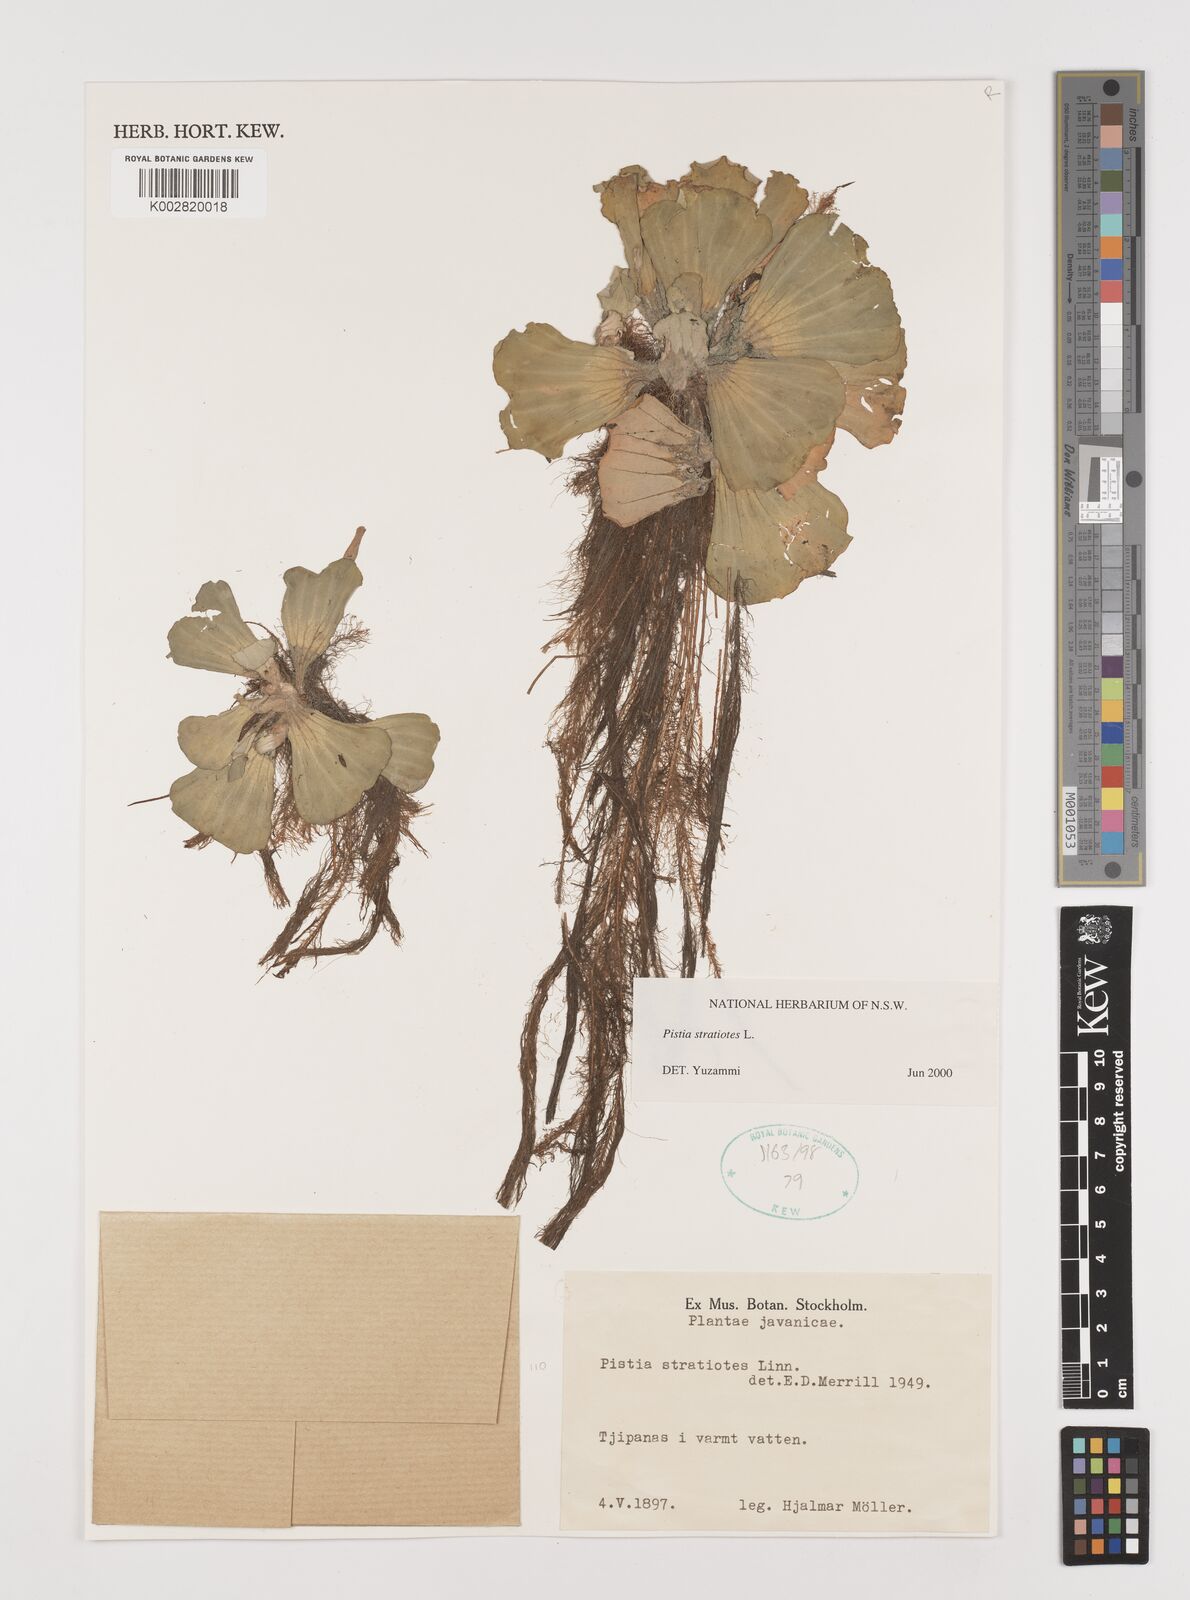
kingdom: Plantae
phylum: Tracheophyta
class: Liliopsida
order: Alismatales
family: Araceae
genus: Pistia
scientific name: Pistia stratiotes
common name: Water lettuce
